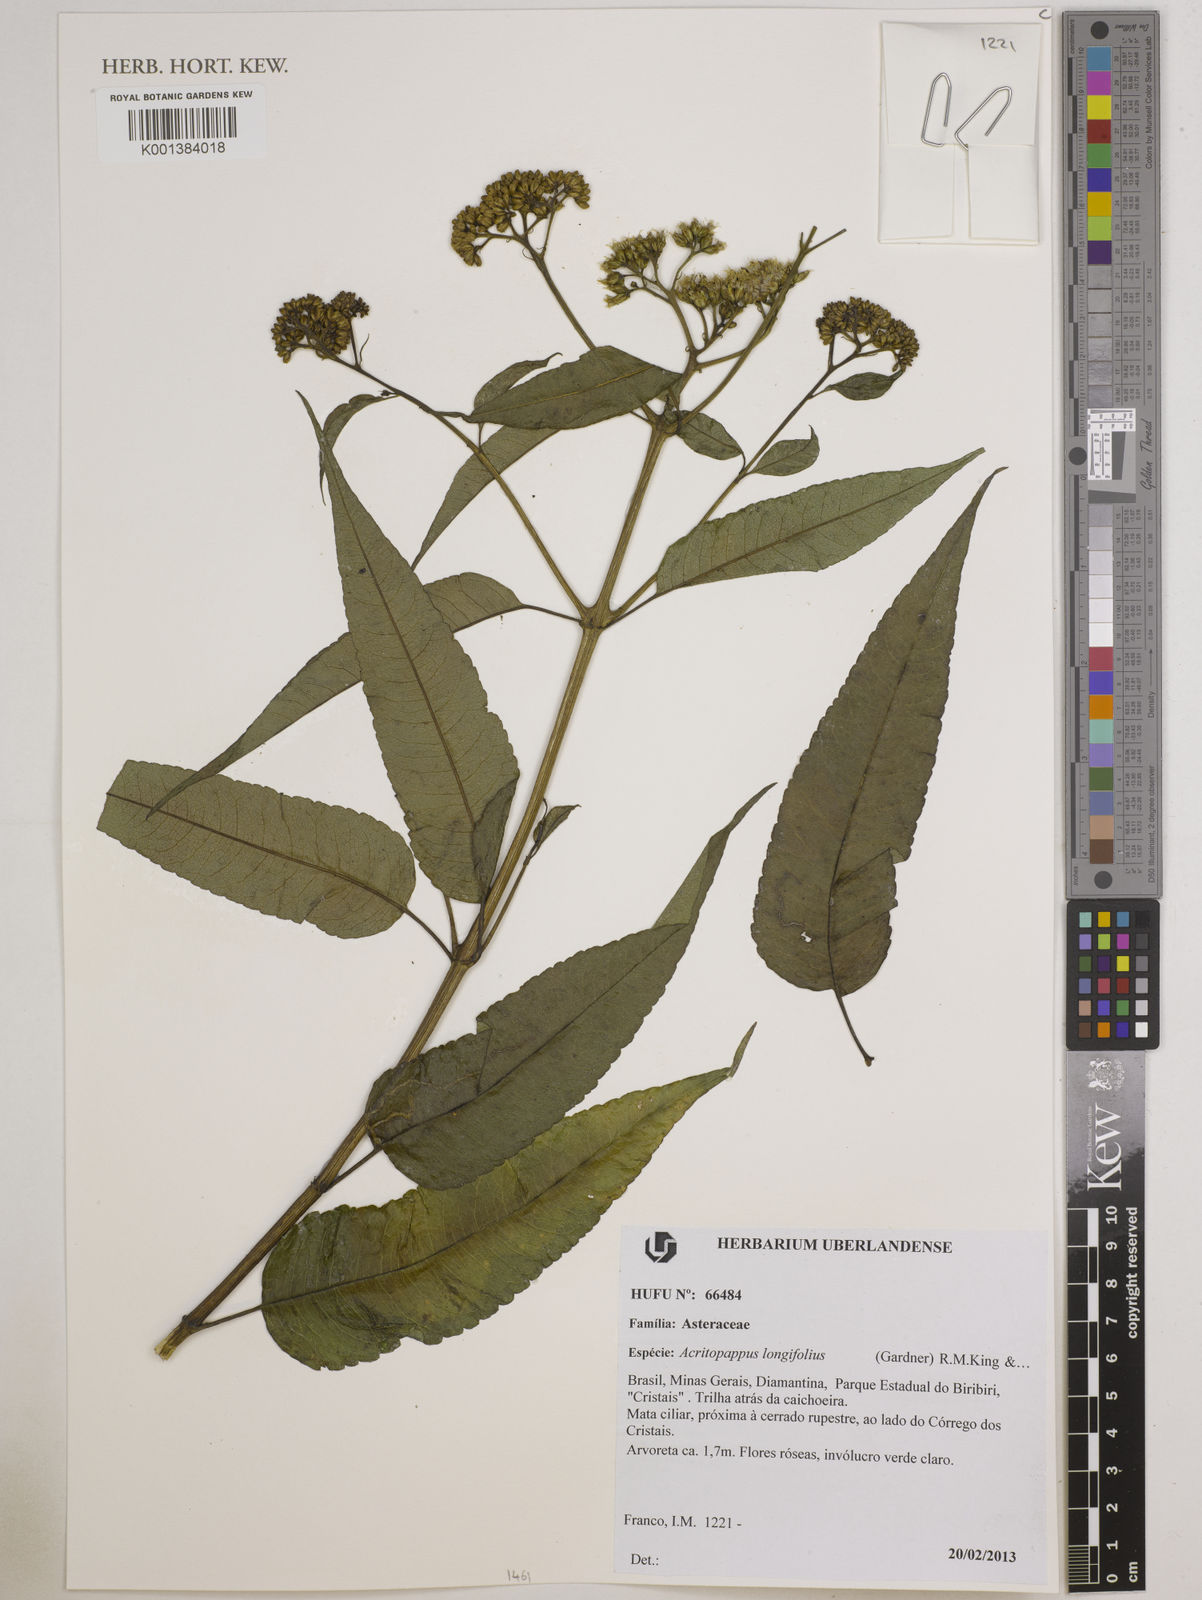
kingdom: Plantae
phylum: Tracheophyta
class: Magnoliopsida
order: Asterales
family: Asteraceae
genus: Acritopappus
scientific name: Acritopappus longifolius
